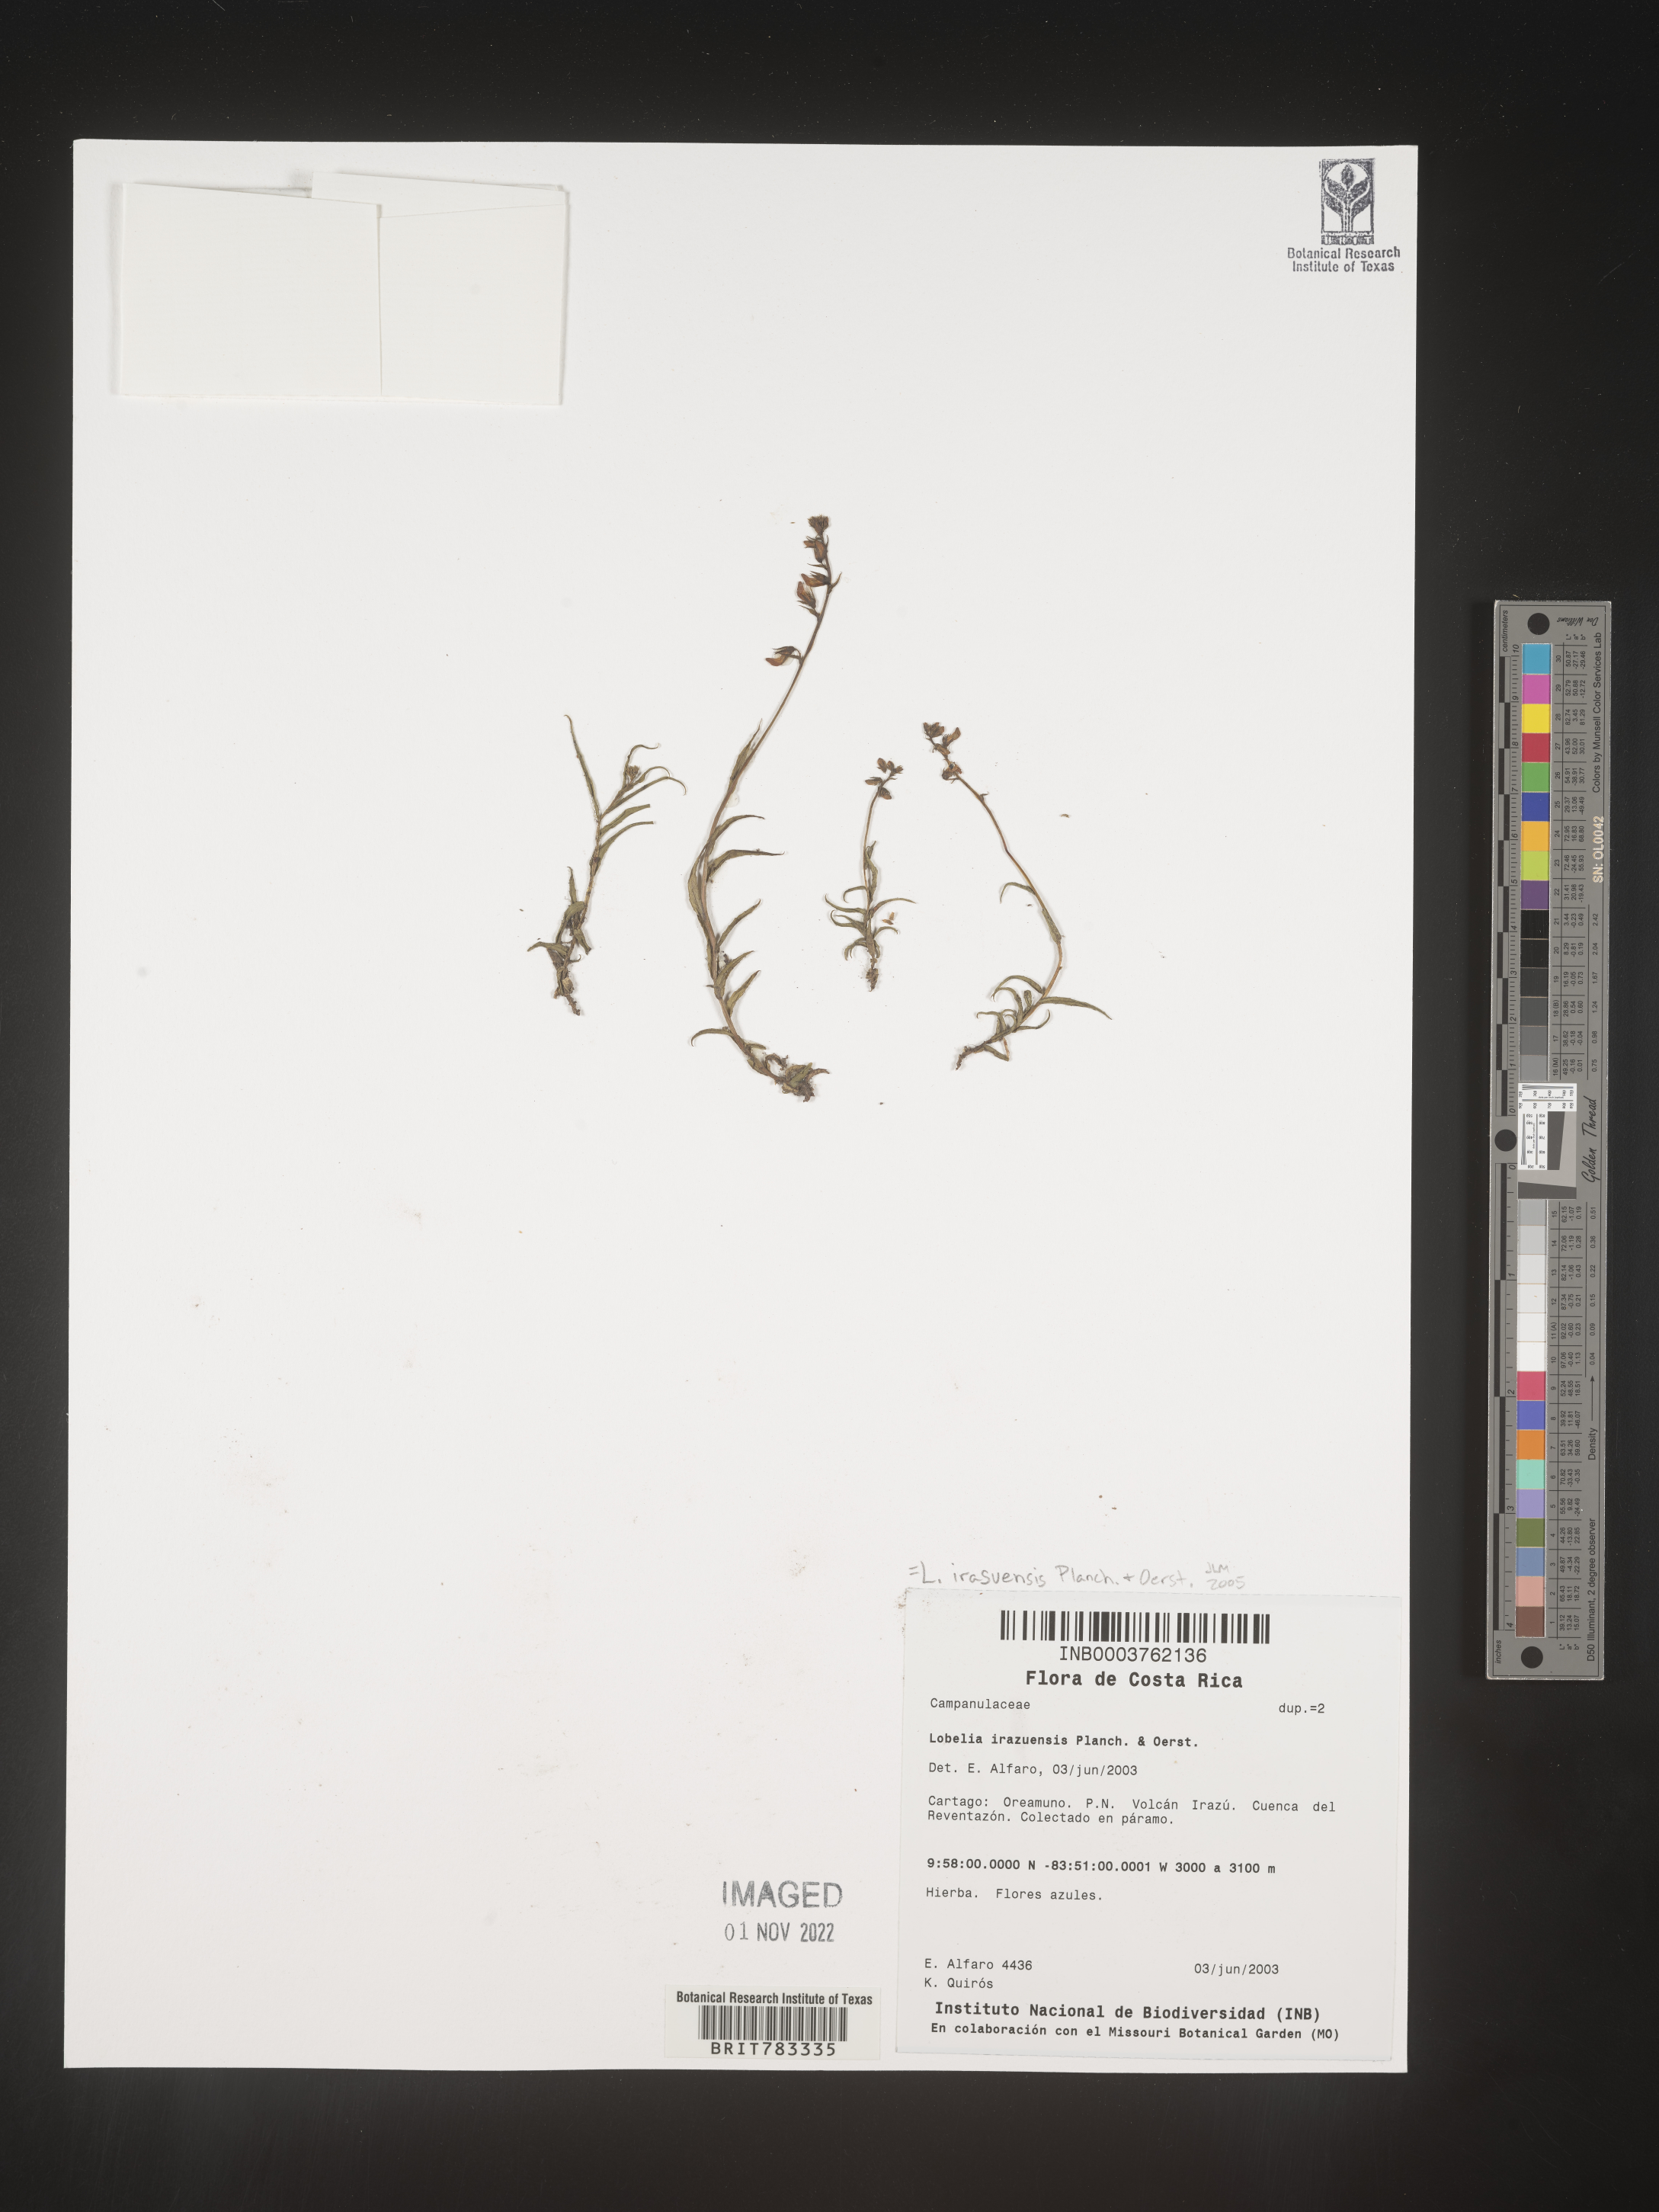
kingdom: Plantae
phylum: Tracheophyta
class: Magnoliopsida
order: Asterales
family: Campanulaceae
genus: Lobelia
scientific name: Lobelia
